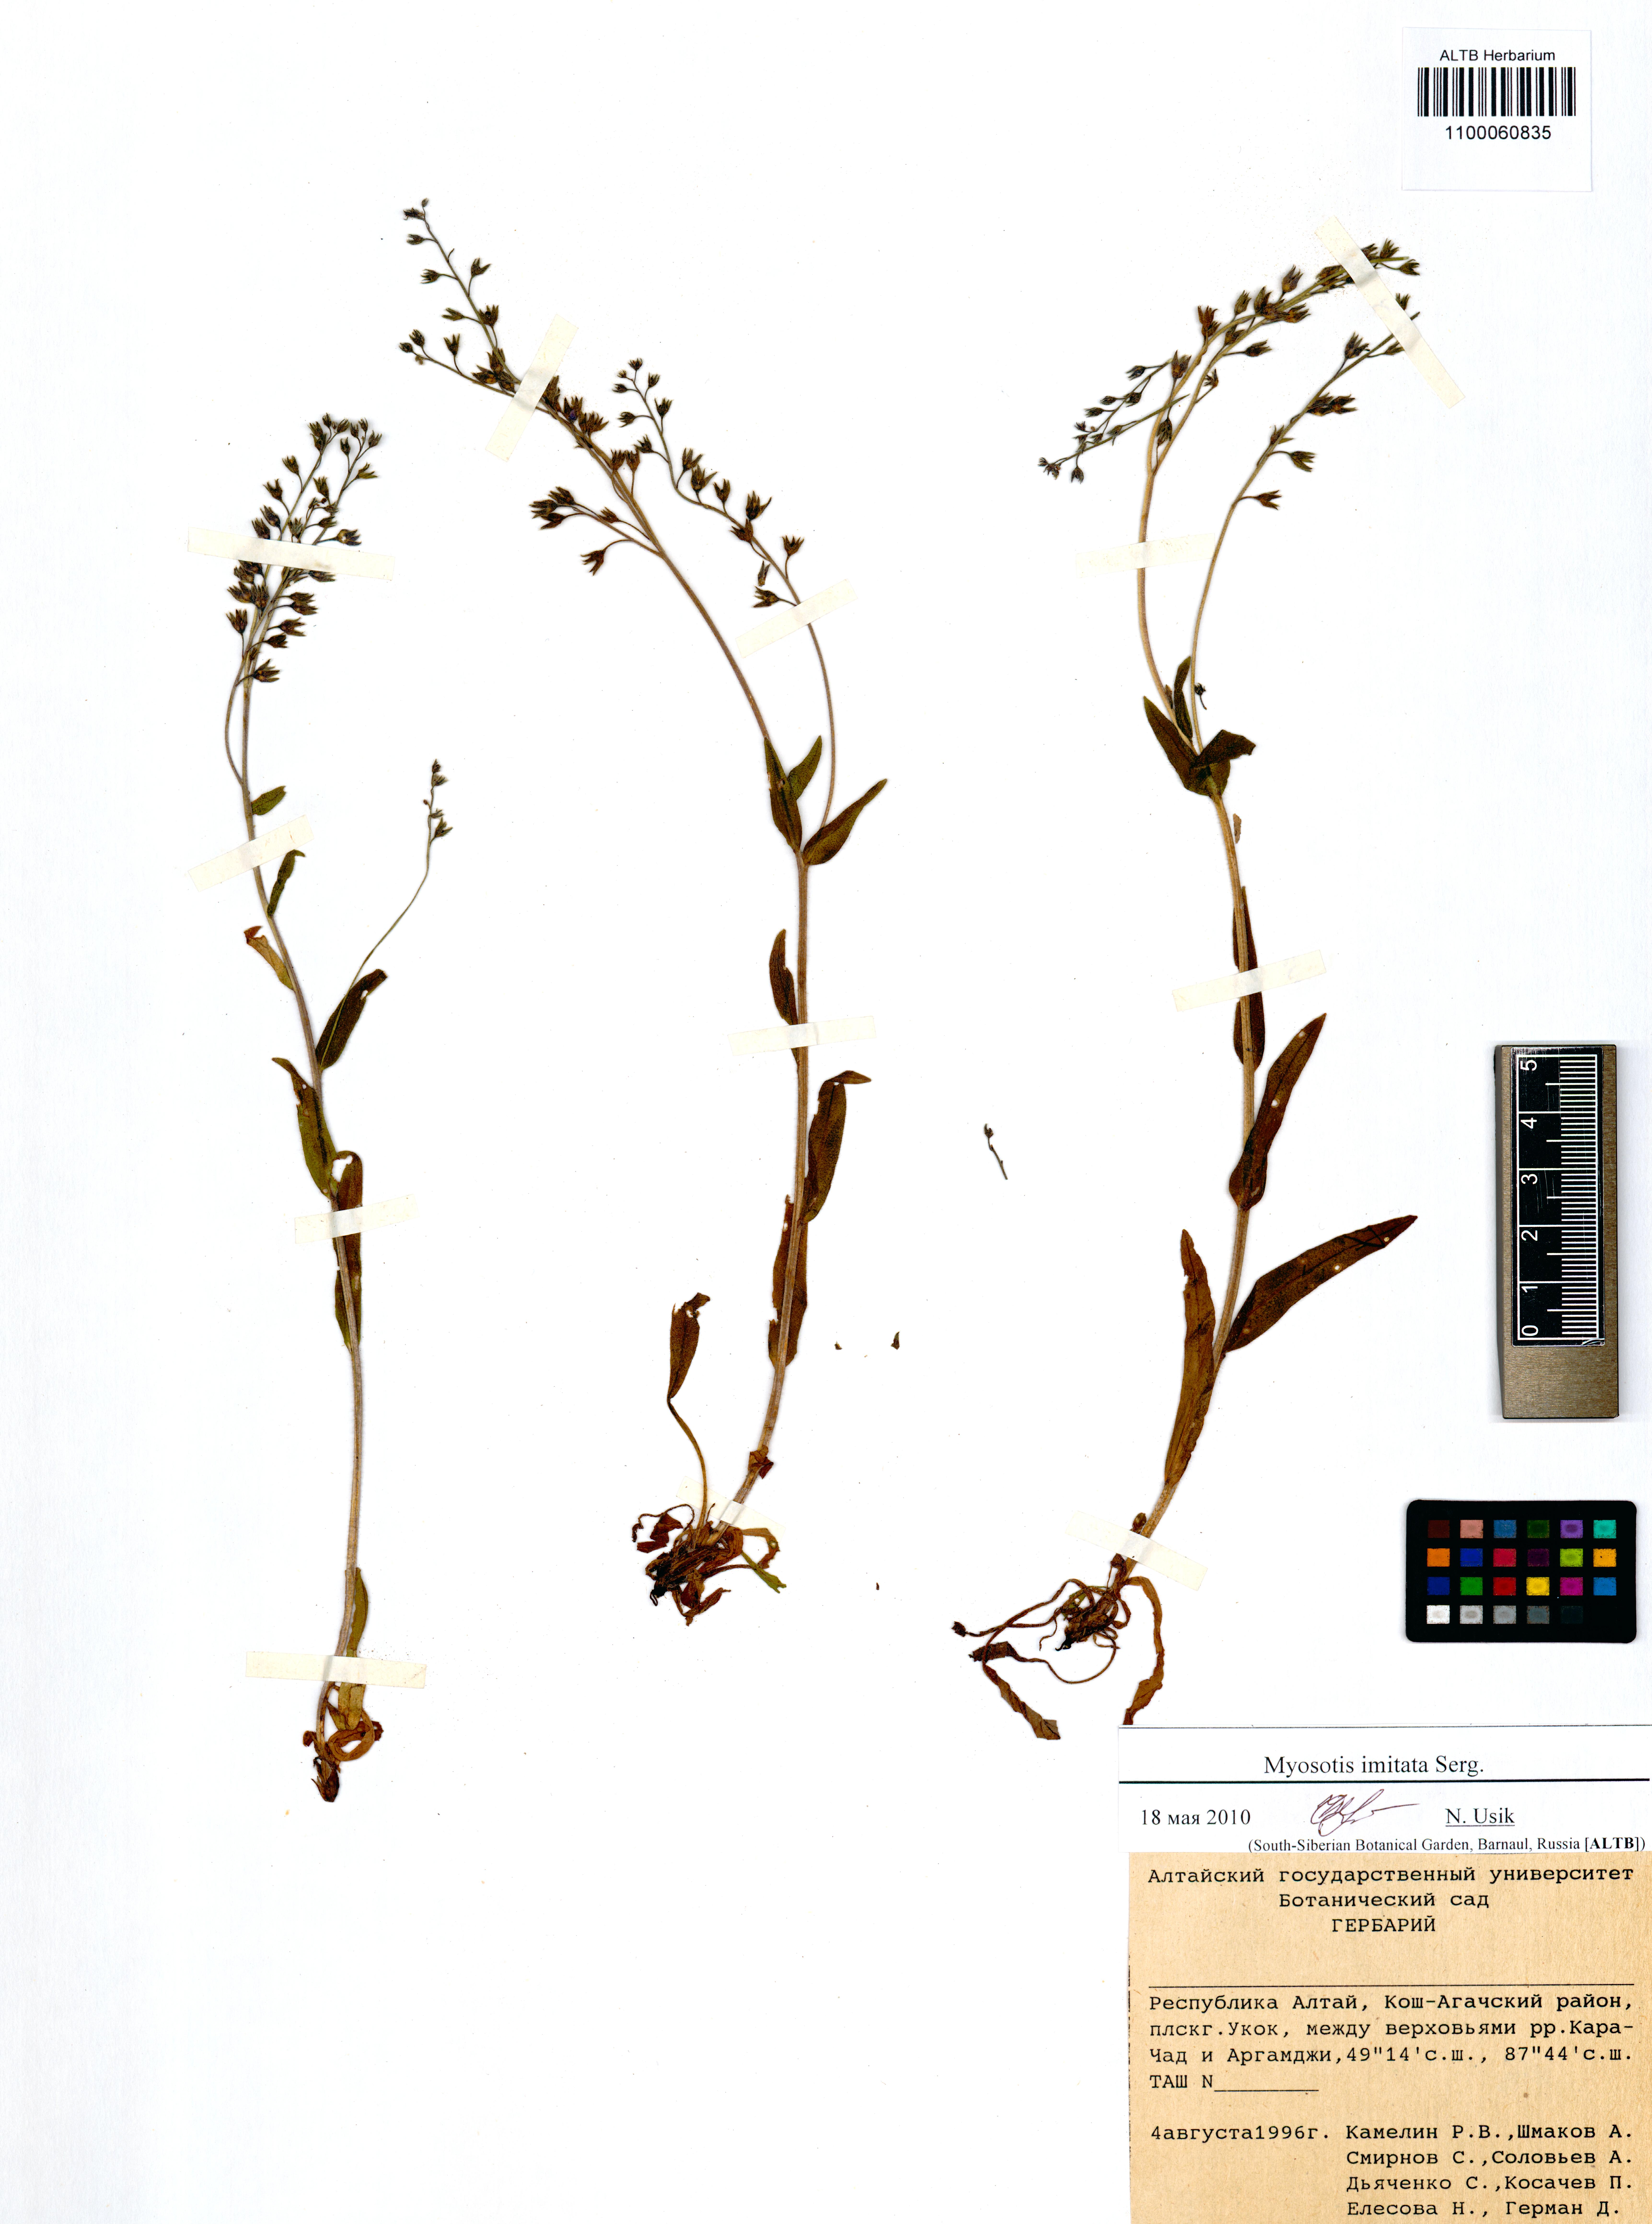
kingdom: Plantae
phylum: Tracheophyta
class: Magnoliopsida
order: Boraginales
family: Boraginaceae
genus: Myosotis
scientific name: Myosotis imitata
